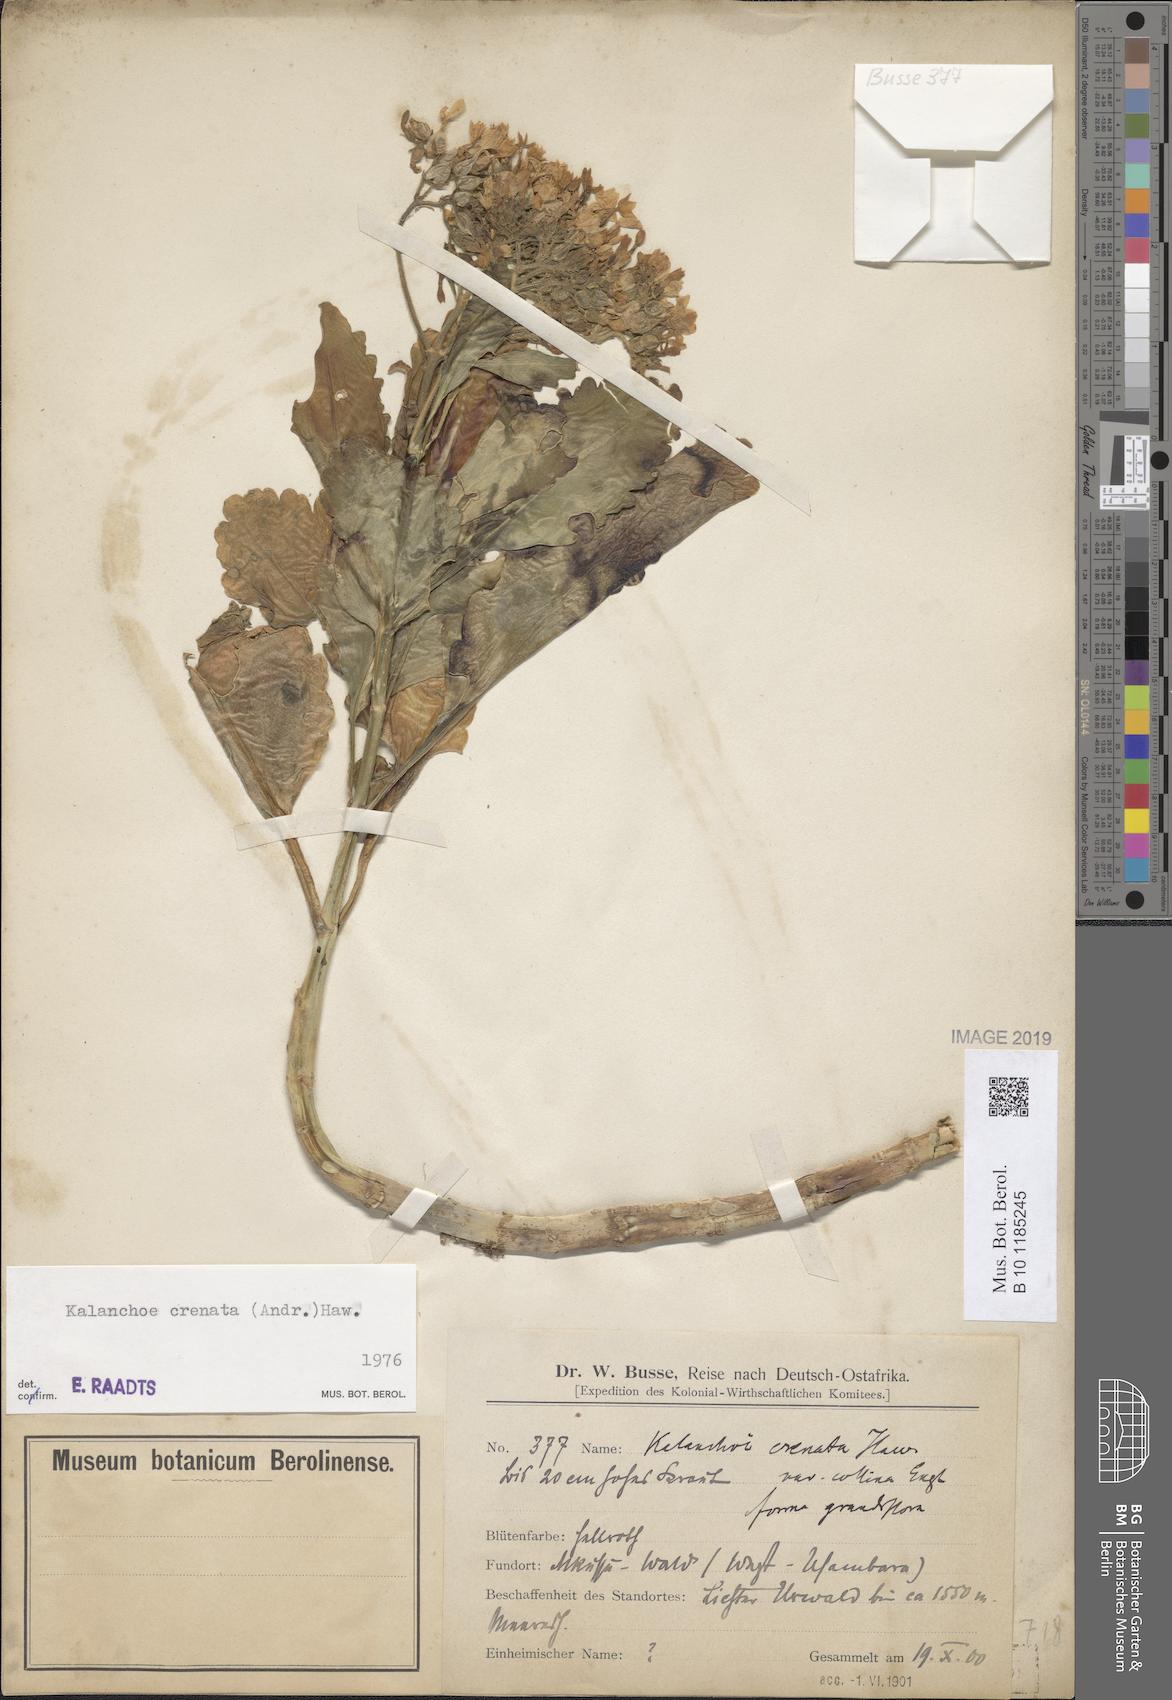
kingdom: Plantae
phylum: Tracheophyta
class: Magnoliopsida
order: Saxifragales
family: Crassulaceae
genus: Kalanchoe
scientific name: Kalanchoe crenata
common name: Neverdie
